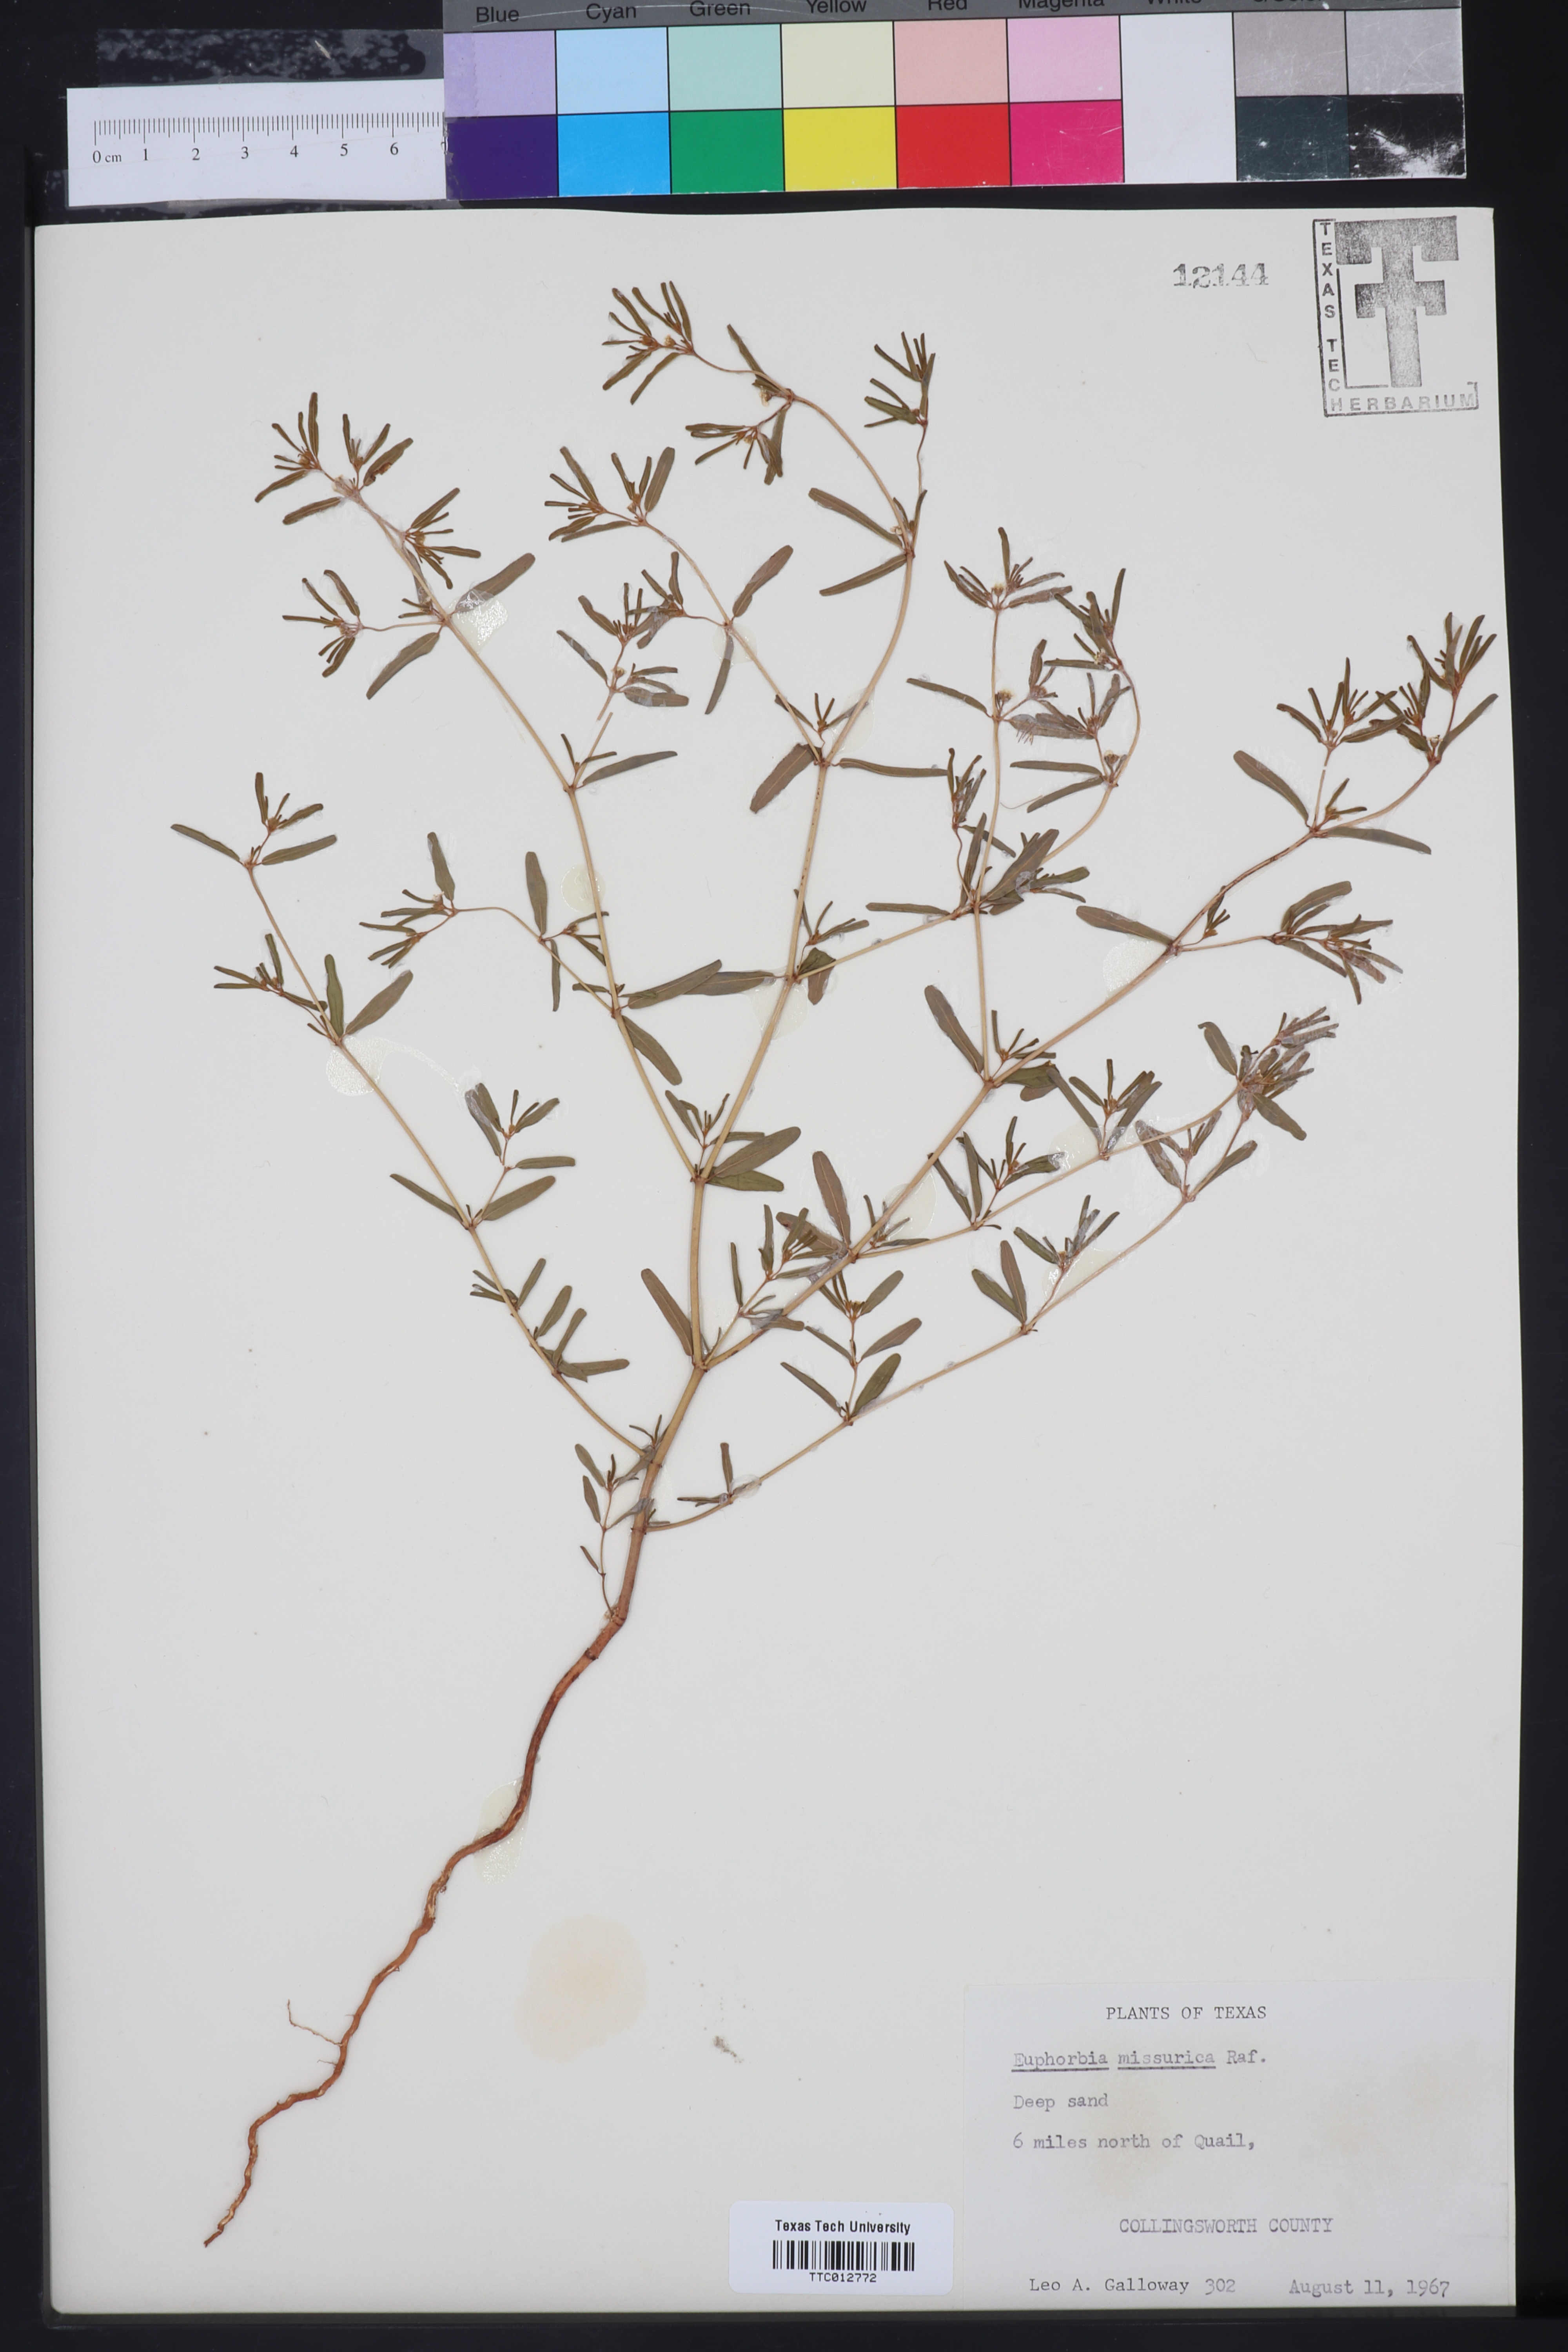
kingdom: Plantae
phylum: Tracheophyta
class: Magnoliopsida
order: Malpighiales
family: Euphorbiaceae
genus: Euphorbia
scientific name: Euphorbia missurica
